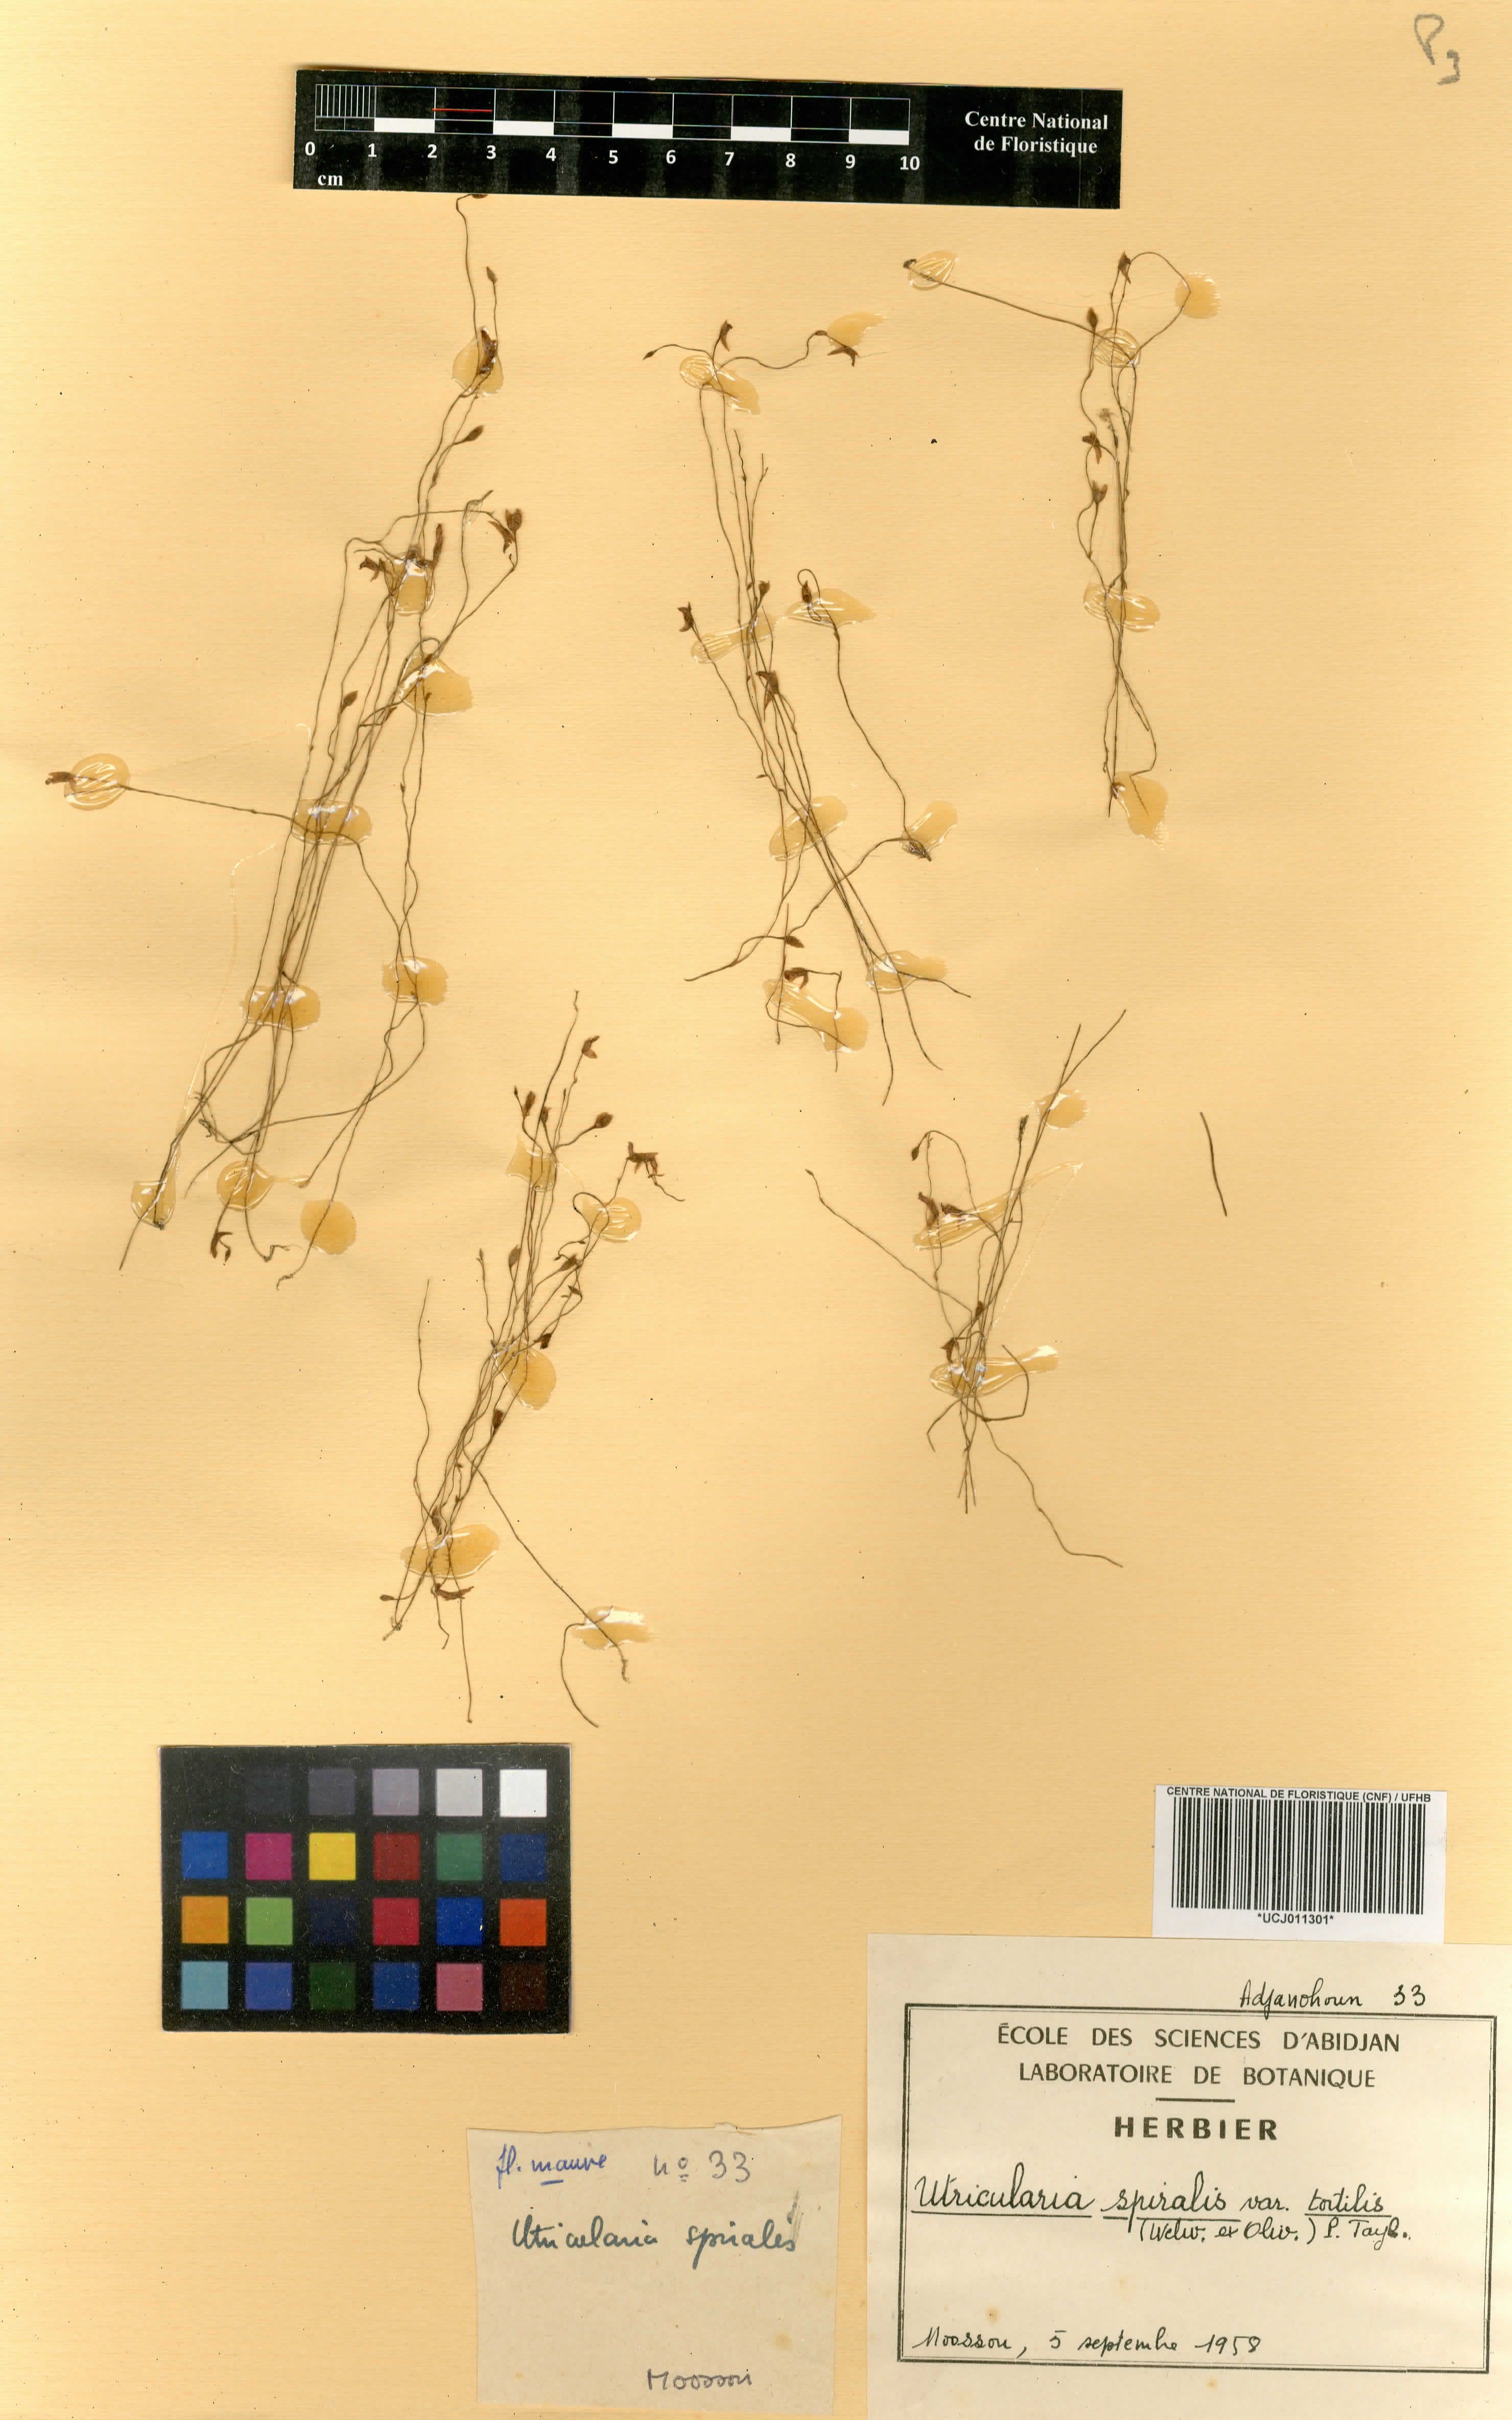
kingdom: Plantae
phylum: Tracheophyta
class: Magnoliopsida
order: Lamiales
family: Lentibulariaceae
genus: Utricularia
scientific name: Utricularia stanfieldii
